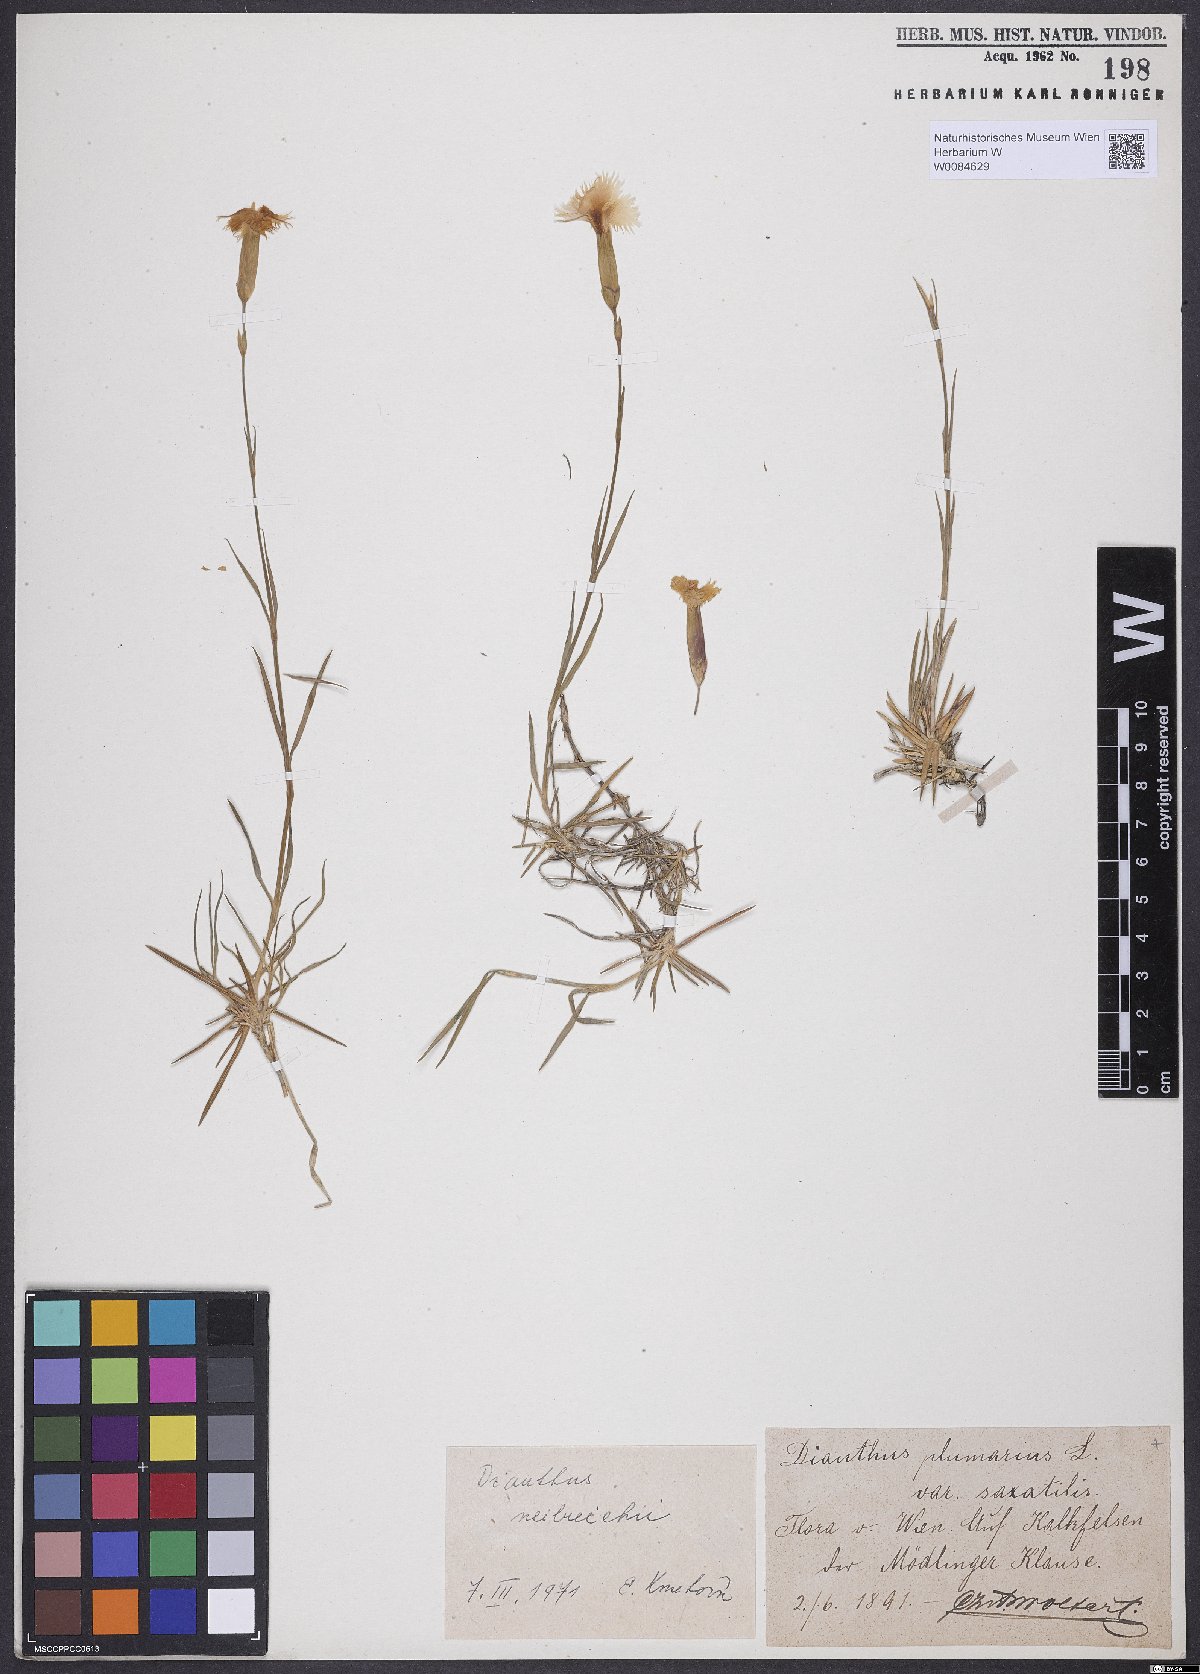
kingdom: Plantae
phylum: Tracheophyta
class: Magnoliopsida
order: Caryophyllales
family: Caryophyllaceae
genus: Dianthus
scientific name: Dianthus plumarius
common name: Pink
